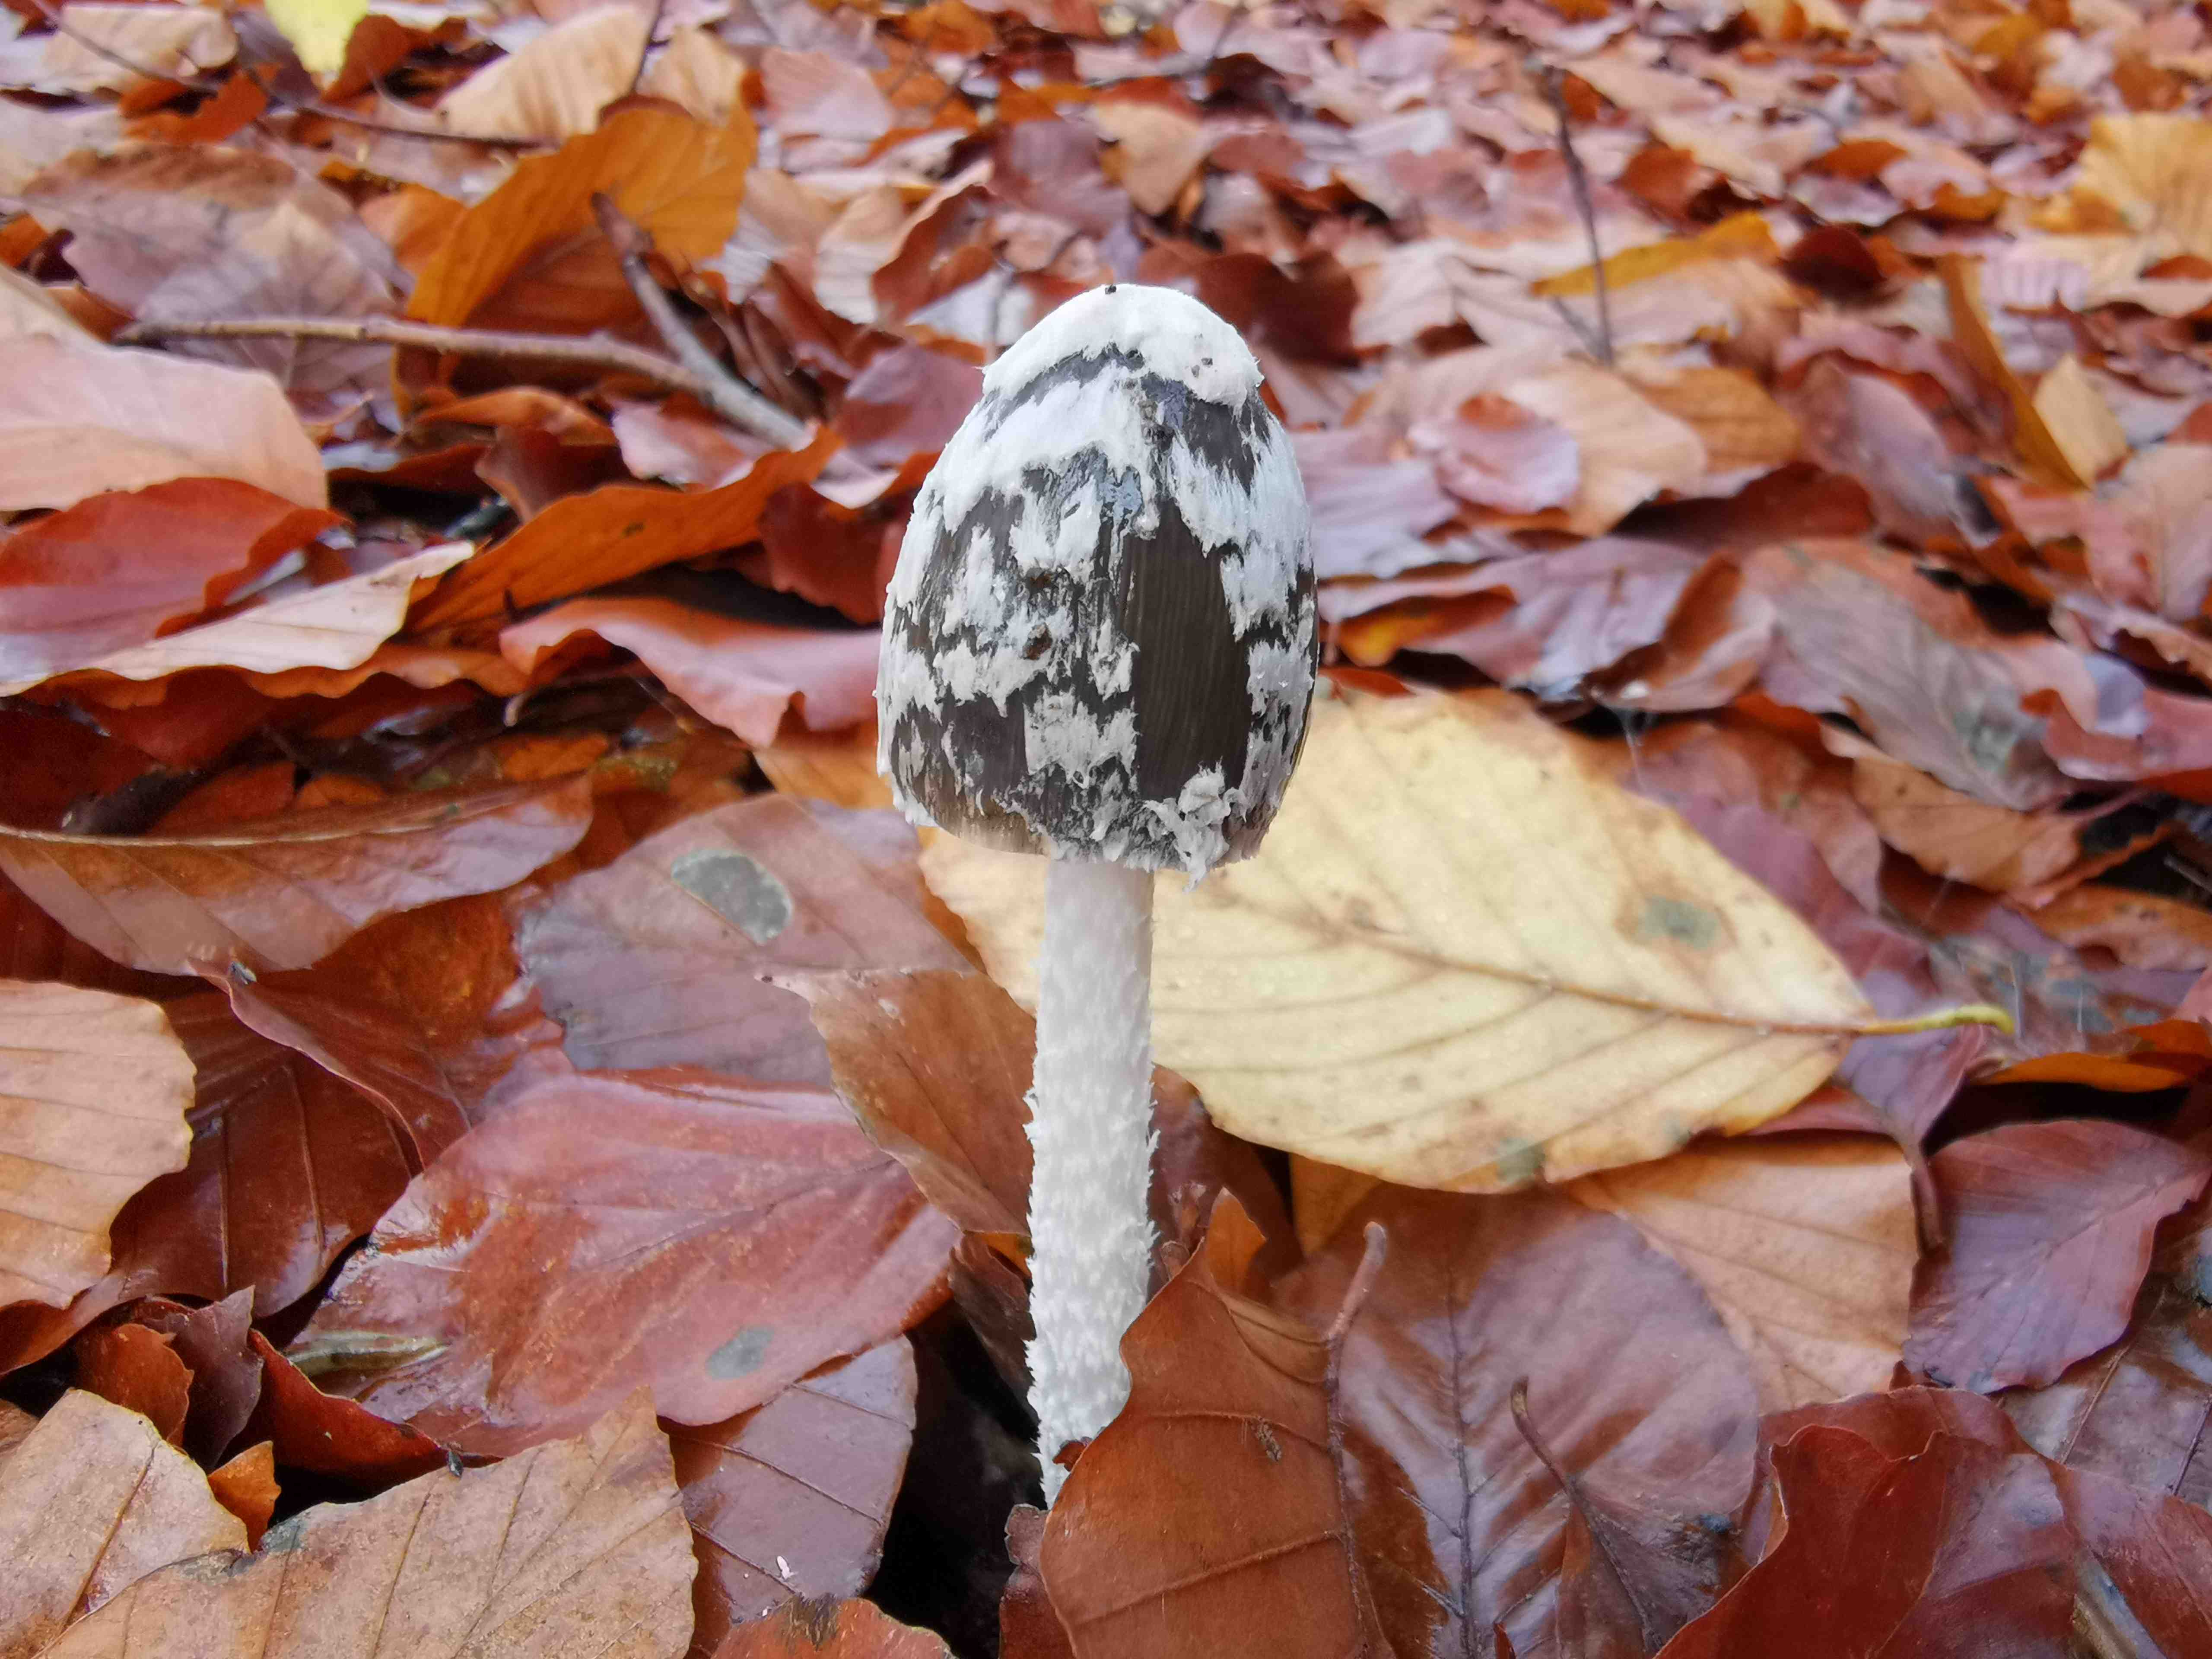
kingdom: Fungi
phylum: Basidiomycota
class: Agaricomycetes
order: Agaricales
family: Psathyrellaceae
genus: Coprinopsis
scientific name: Coprinopsis picacea
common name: skade-blækhat
